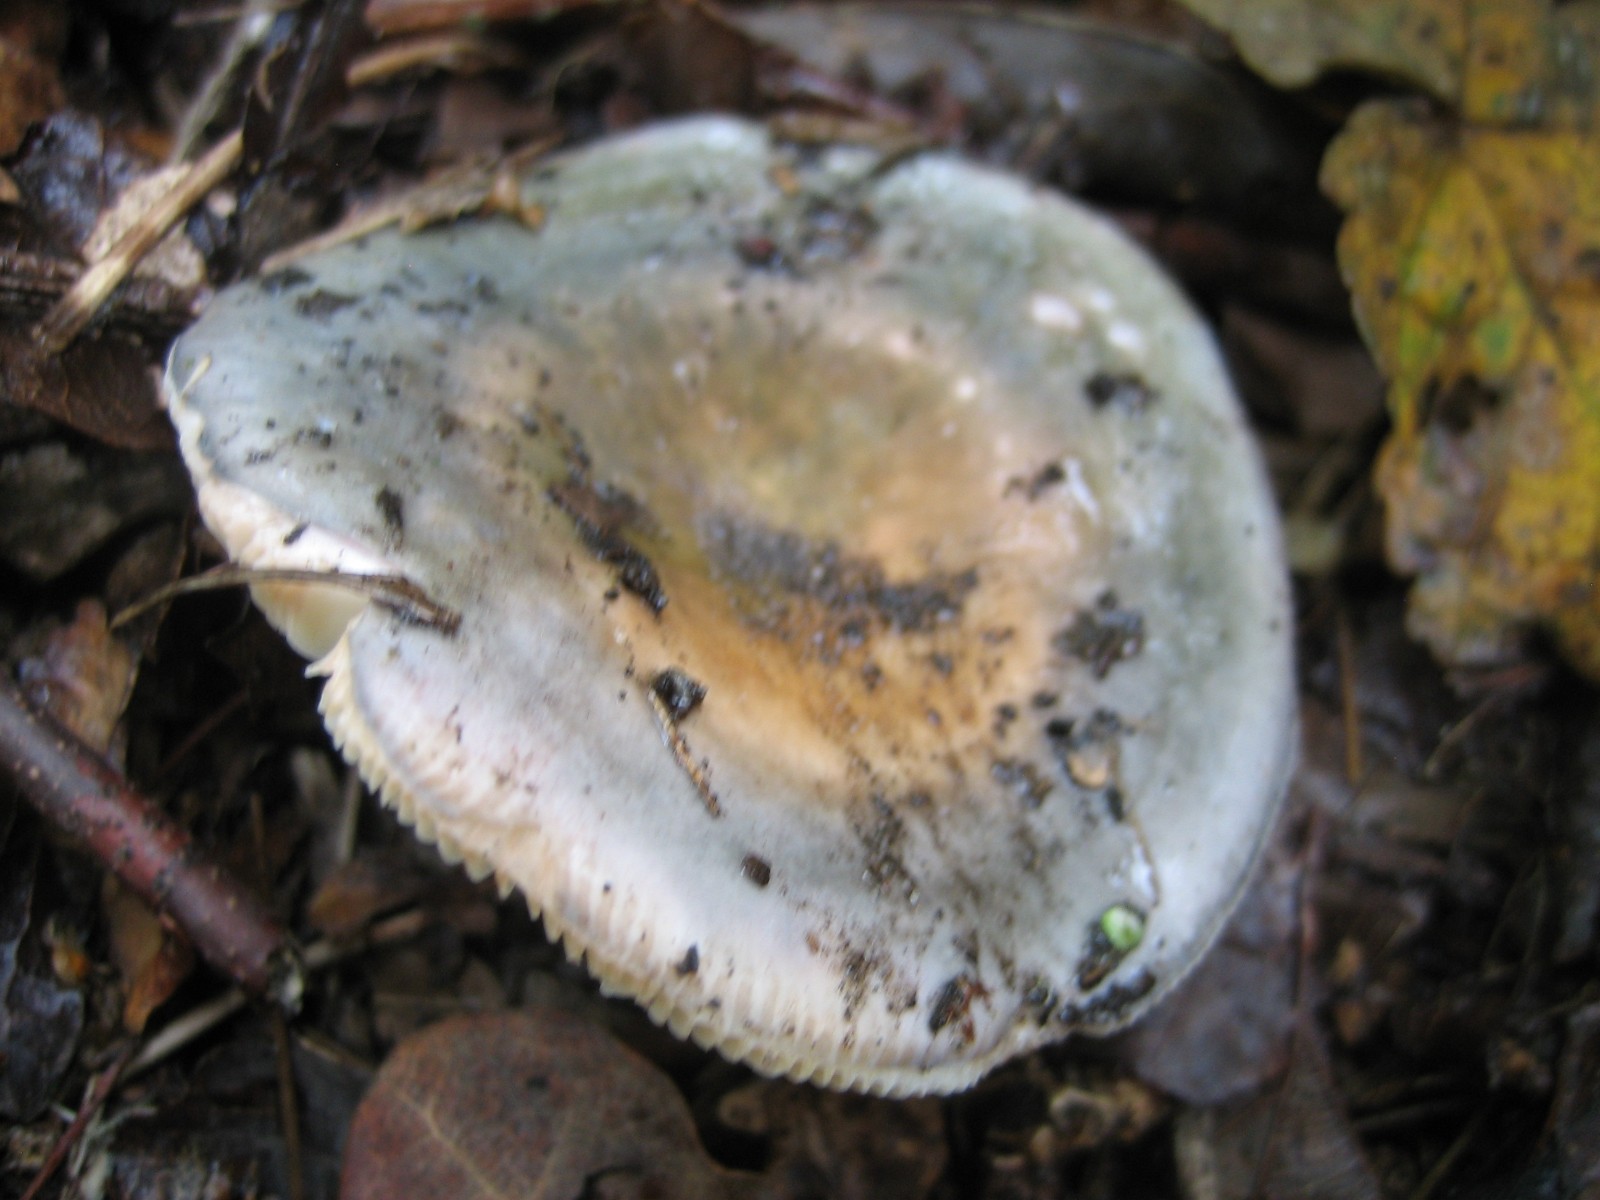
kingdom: Fungi
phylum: Basidiomycota
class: Agaricomycetes
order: Russulales
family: Russulaceae
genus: Russula
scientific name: Russula
